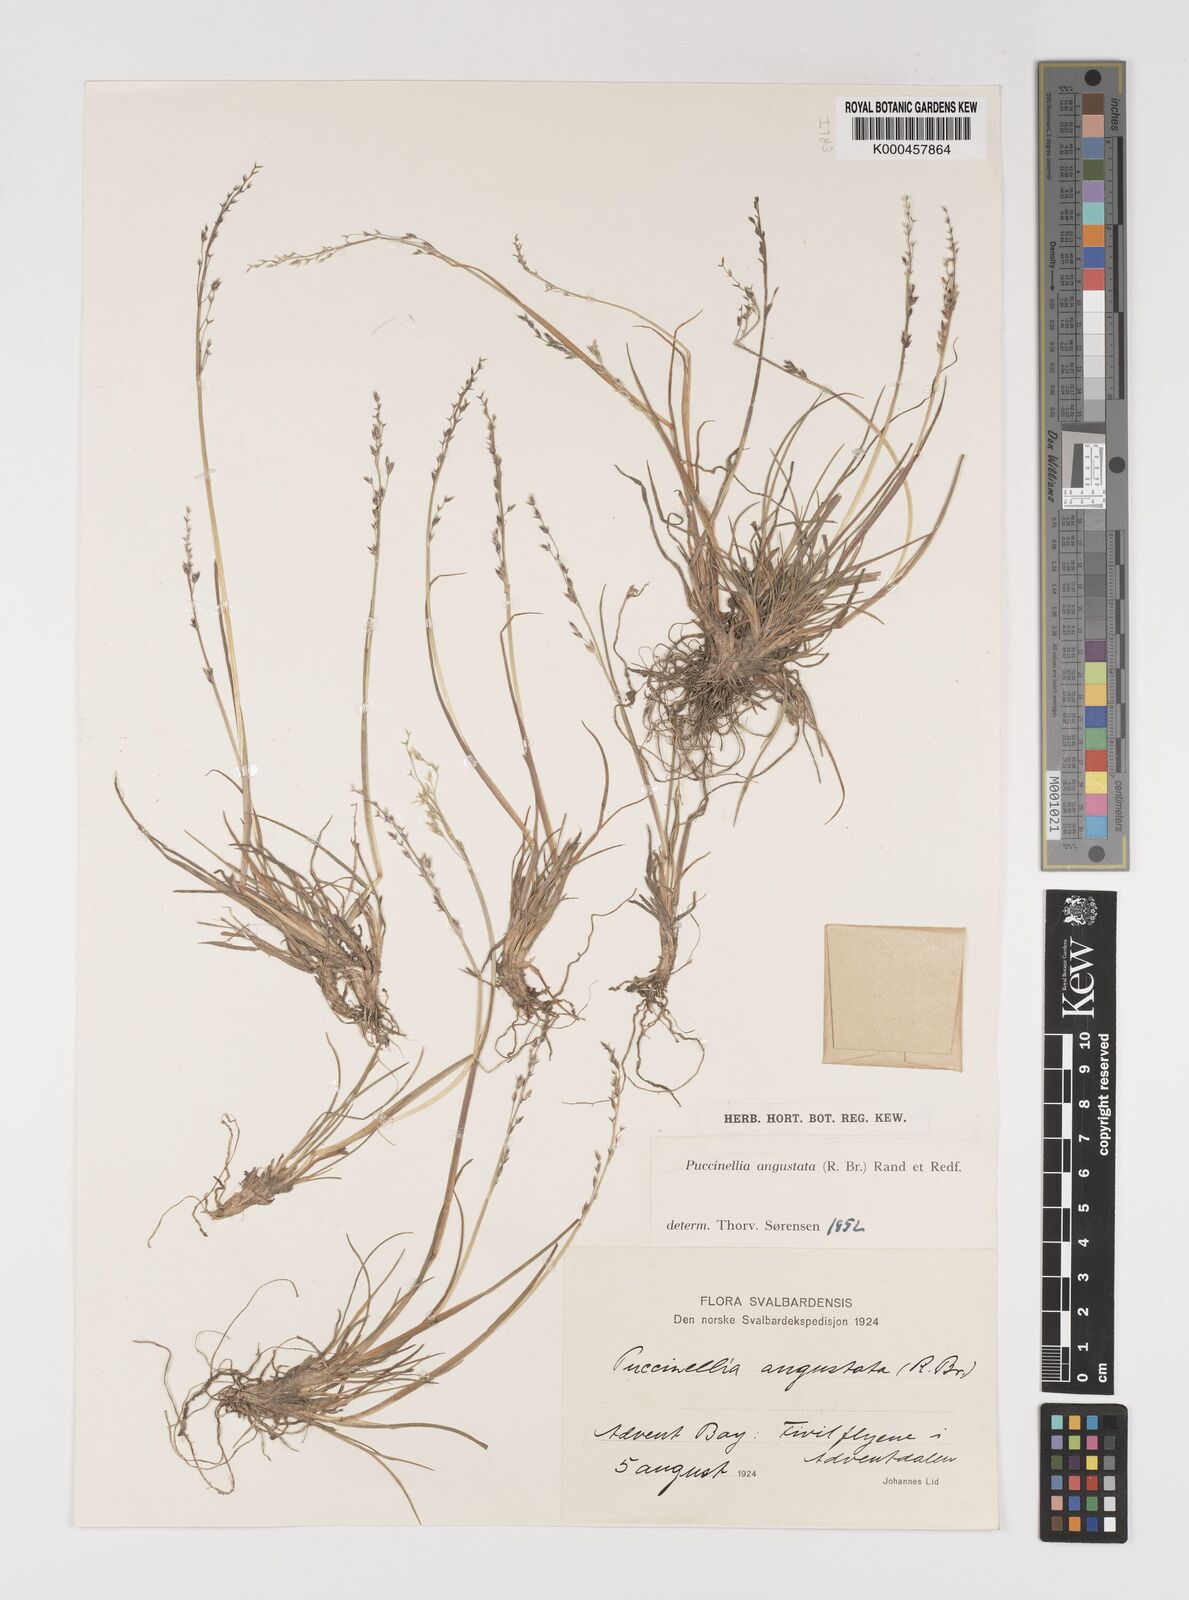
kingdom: Plantae
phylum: Tracheophyta
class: Liliopsida
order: Poales
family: Poaceae
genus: Puccinellia
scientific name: Puccinellia angustata
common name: Narrow alkaligrass
